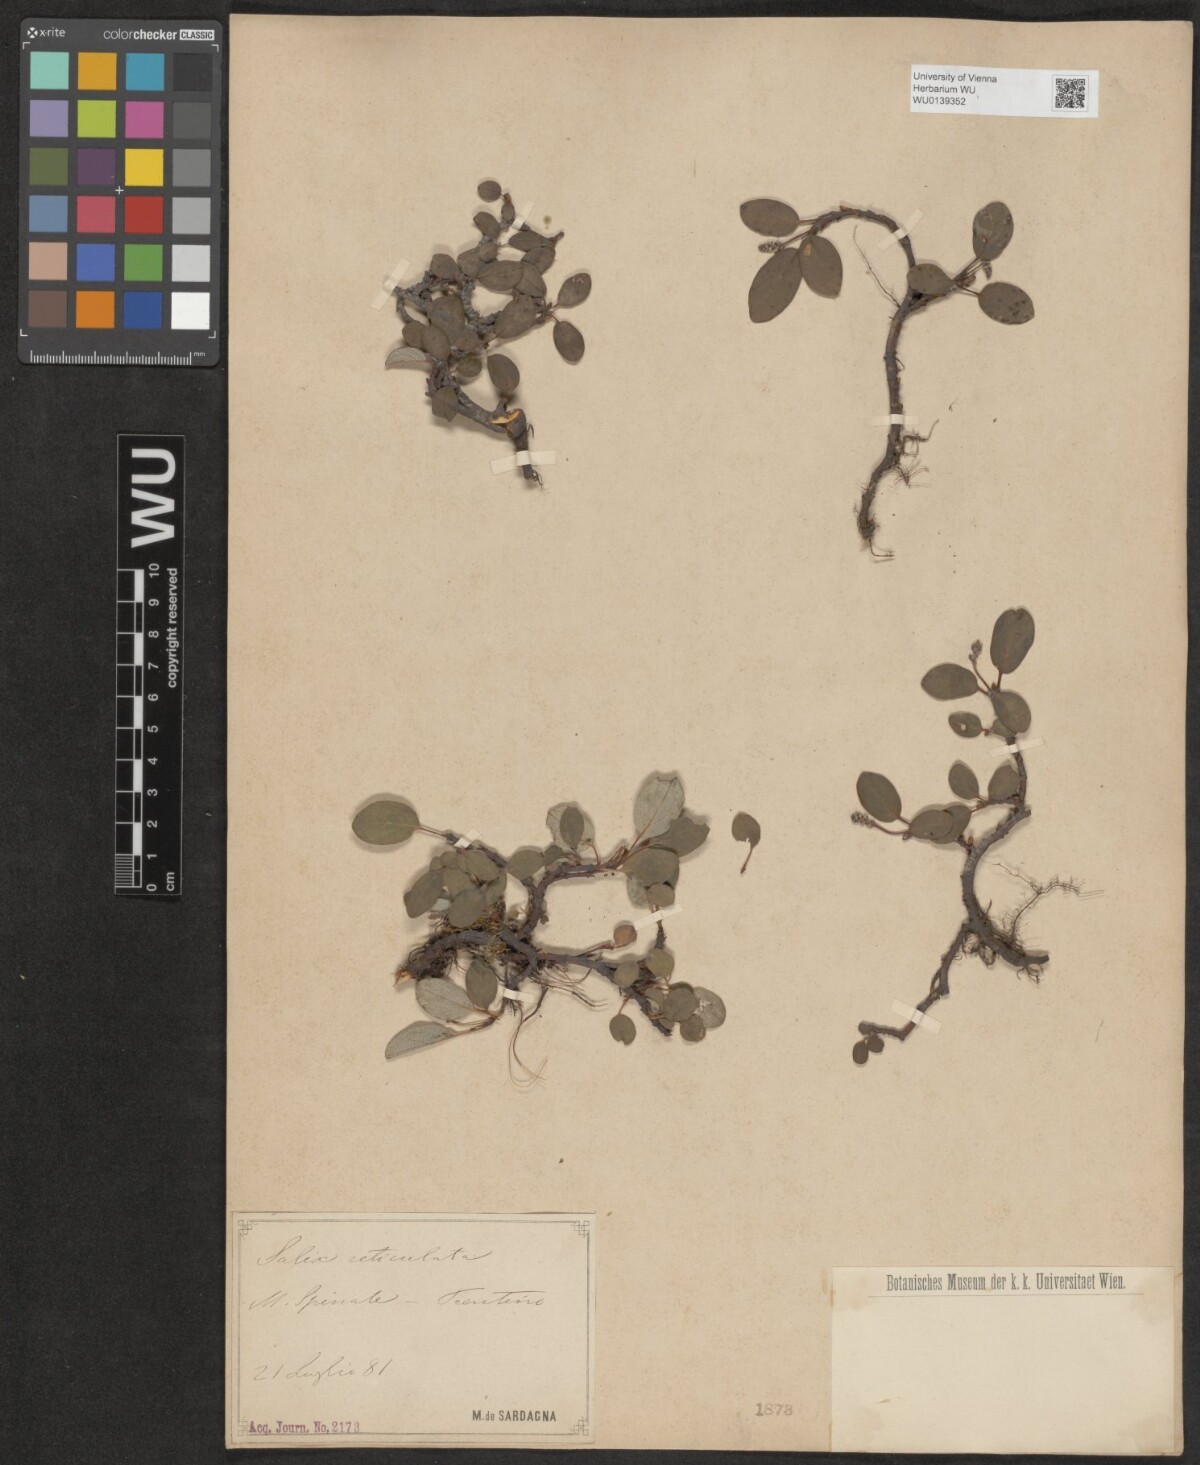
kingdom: Plantae
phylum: Tracheophyta
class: Magnoliopsida
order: Malpighiales
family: Salicaceae
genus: Salix
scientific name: Salix reticulata
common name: Net-leaved willow
